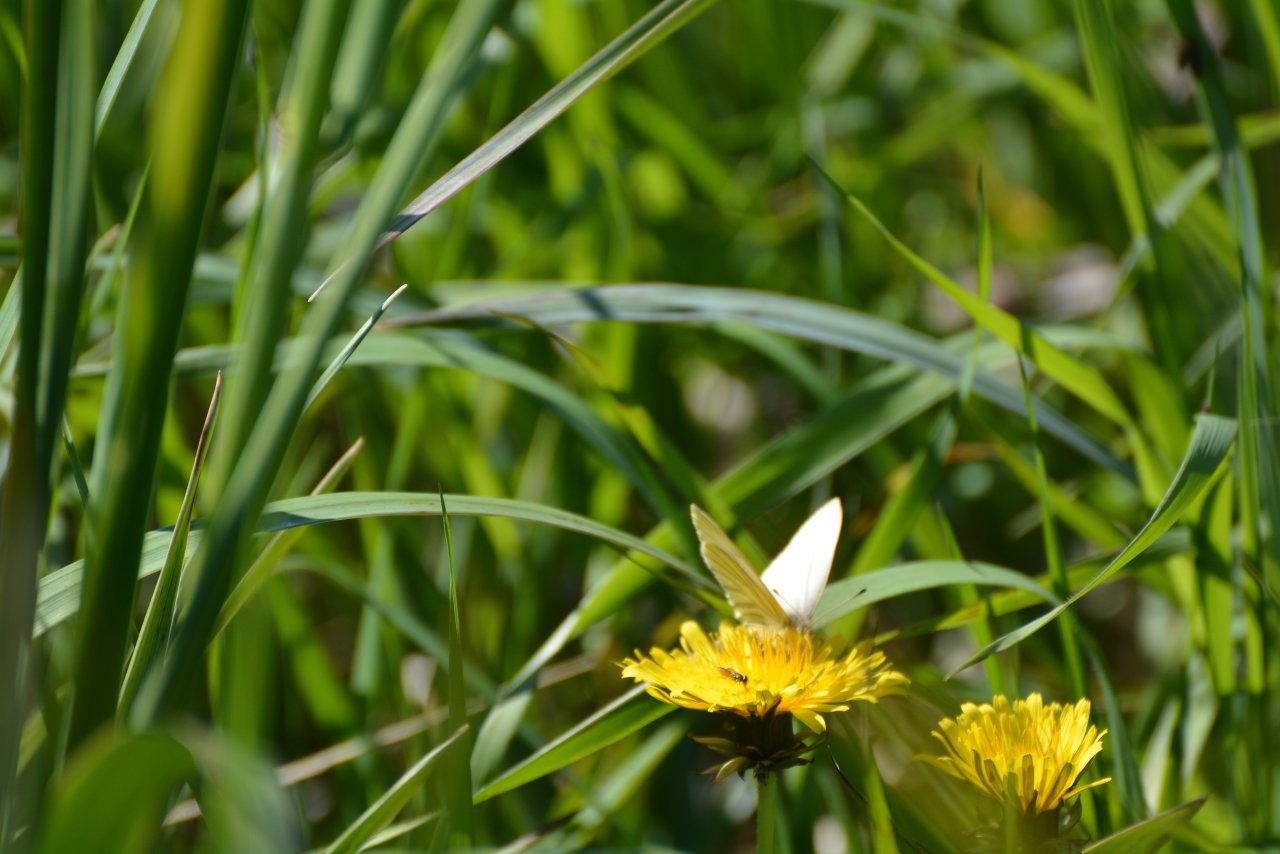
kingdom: Animalia
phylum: Arthropoda
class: Insecta
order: Lepidoptera
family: Pieridae
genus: Pieris
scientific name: Pieris oleracea
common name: Mustard White
